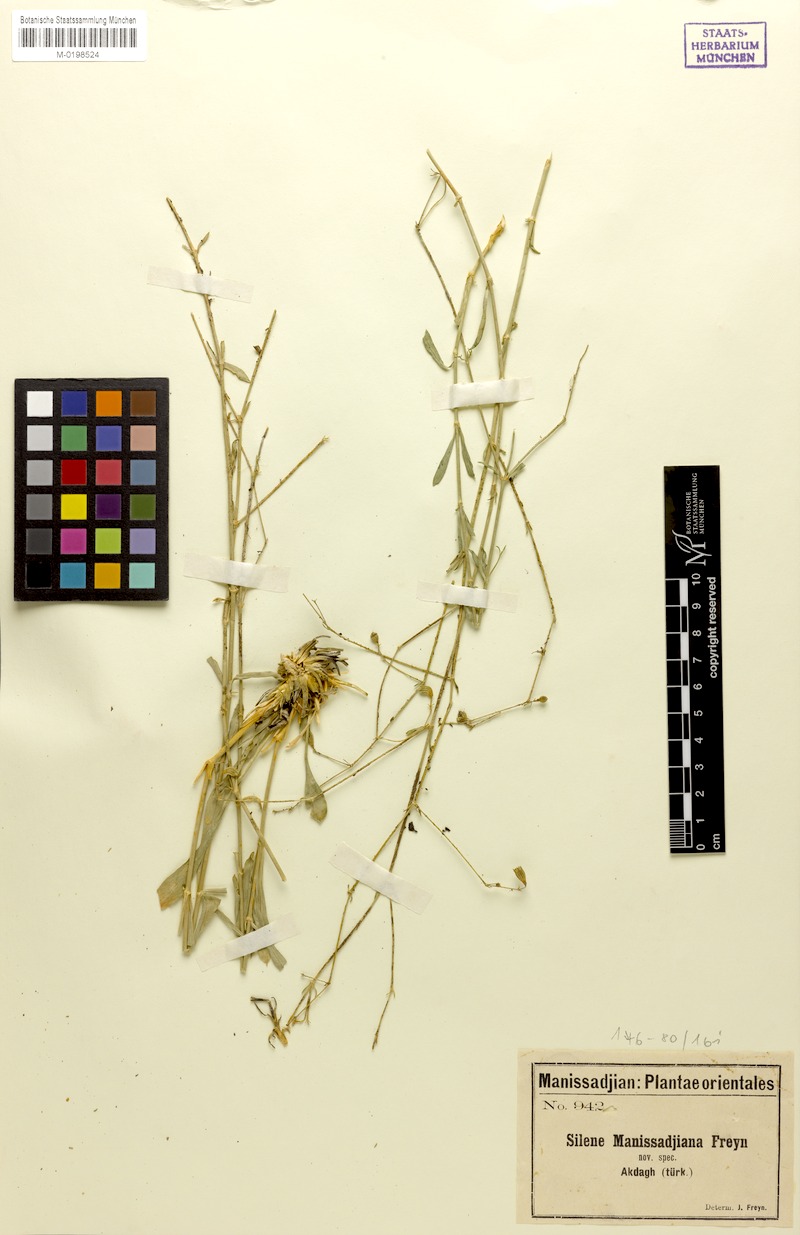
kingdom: Plantae
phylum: Tracheophyta
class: Magnoliopsida
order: Caryophyllales
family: Caryophyllaceae
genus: Silene
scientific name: Silene manissadjianii
